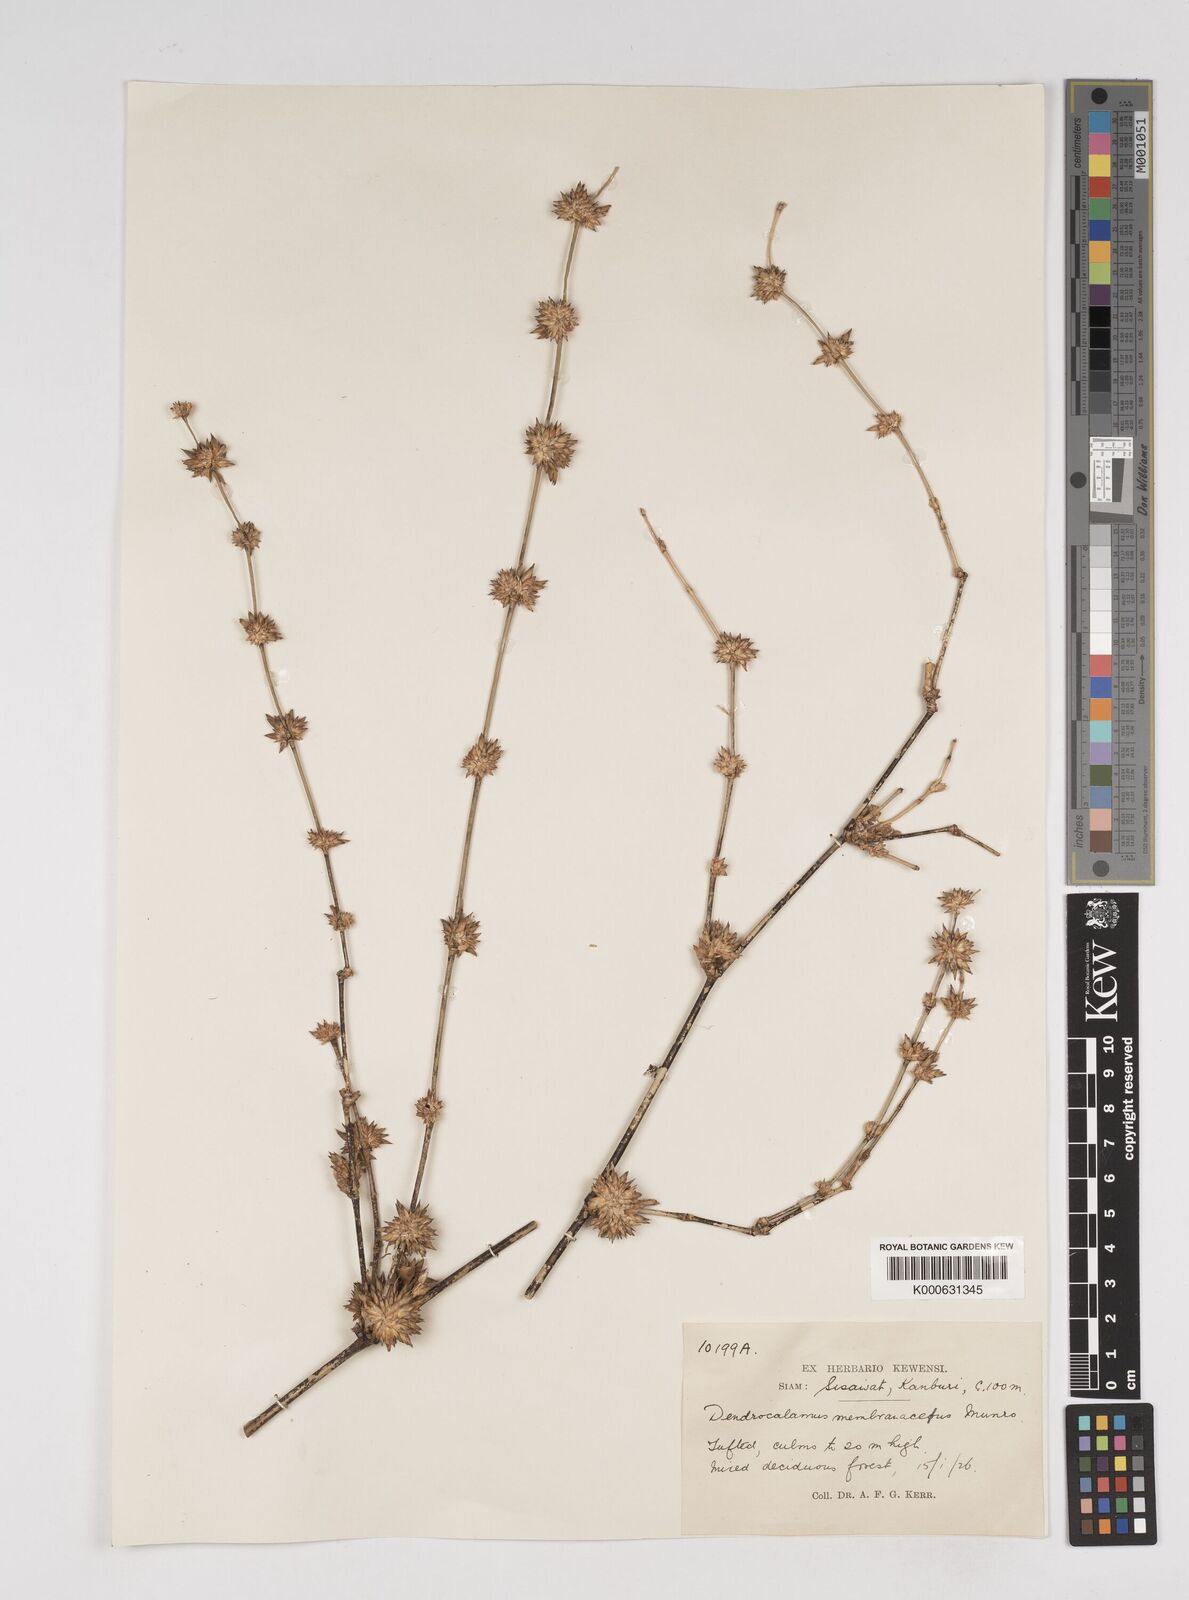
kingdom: Plantae
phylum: Tracheophyta
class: Liliopsida
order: Poales
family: Poaceae
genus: Dendrocalamus
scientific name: Dendrocalamus membranaceus
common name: White bamboo
